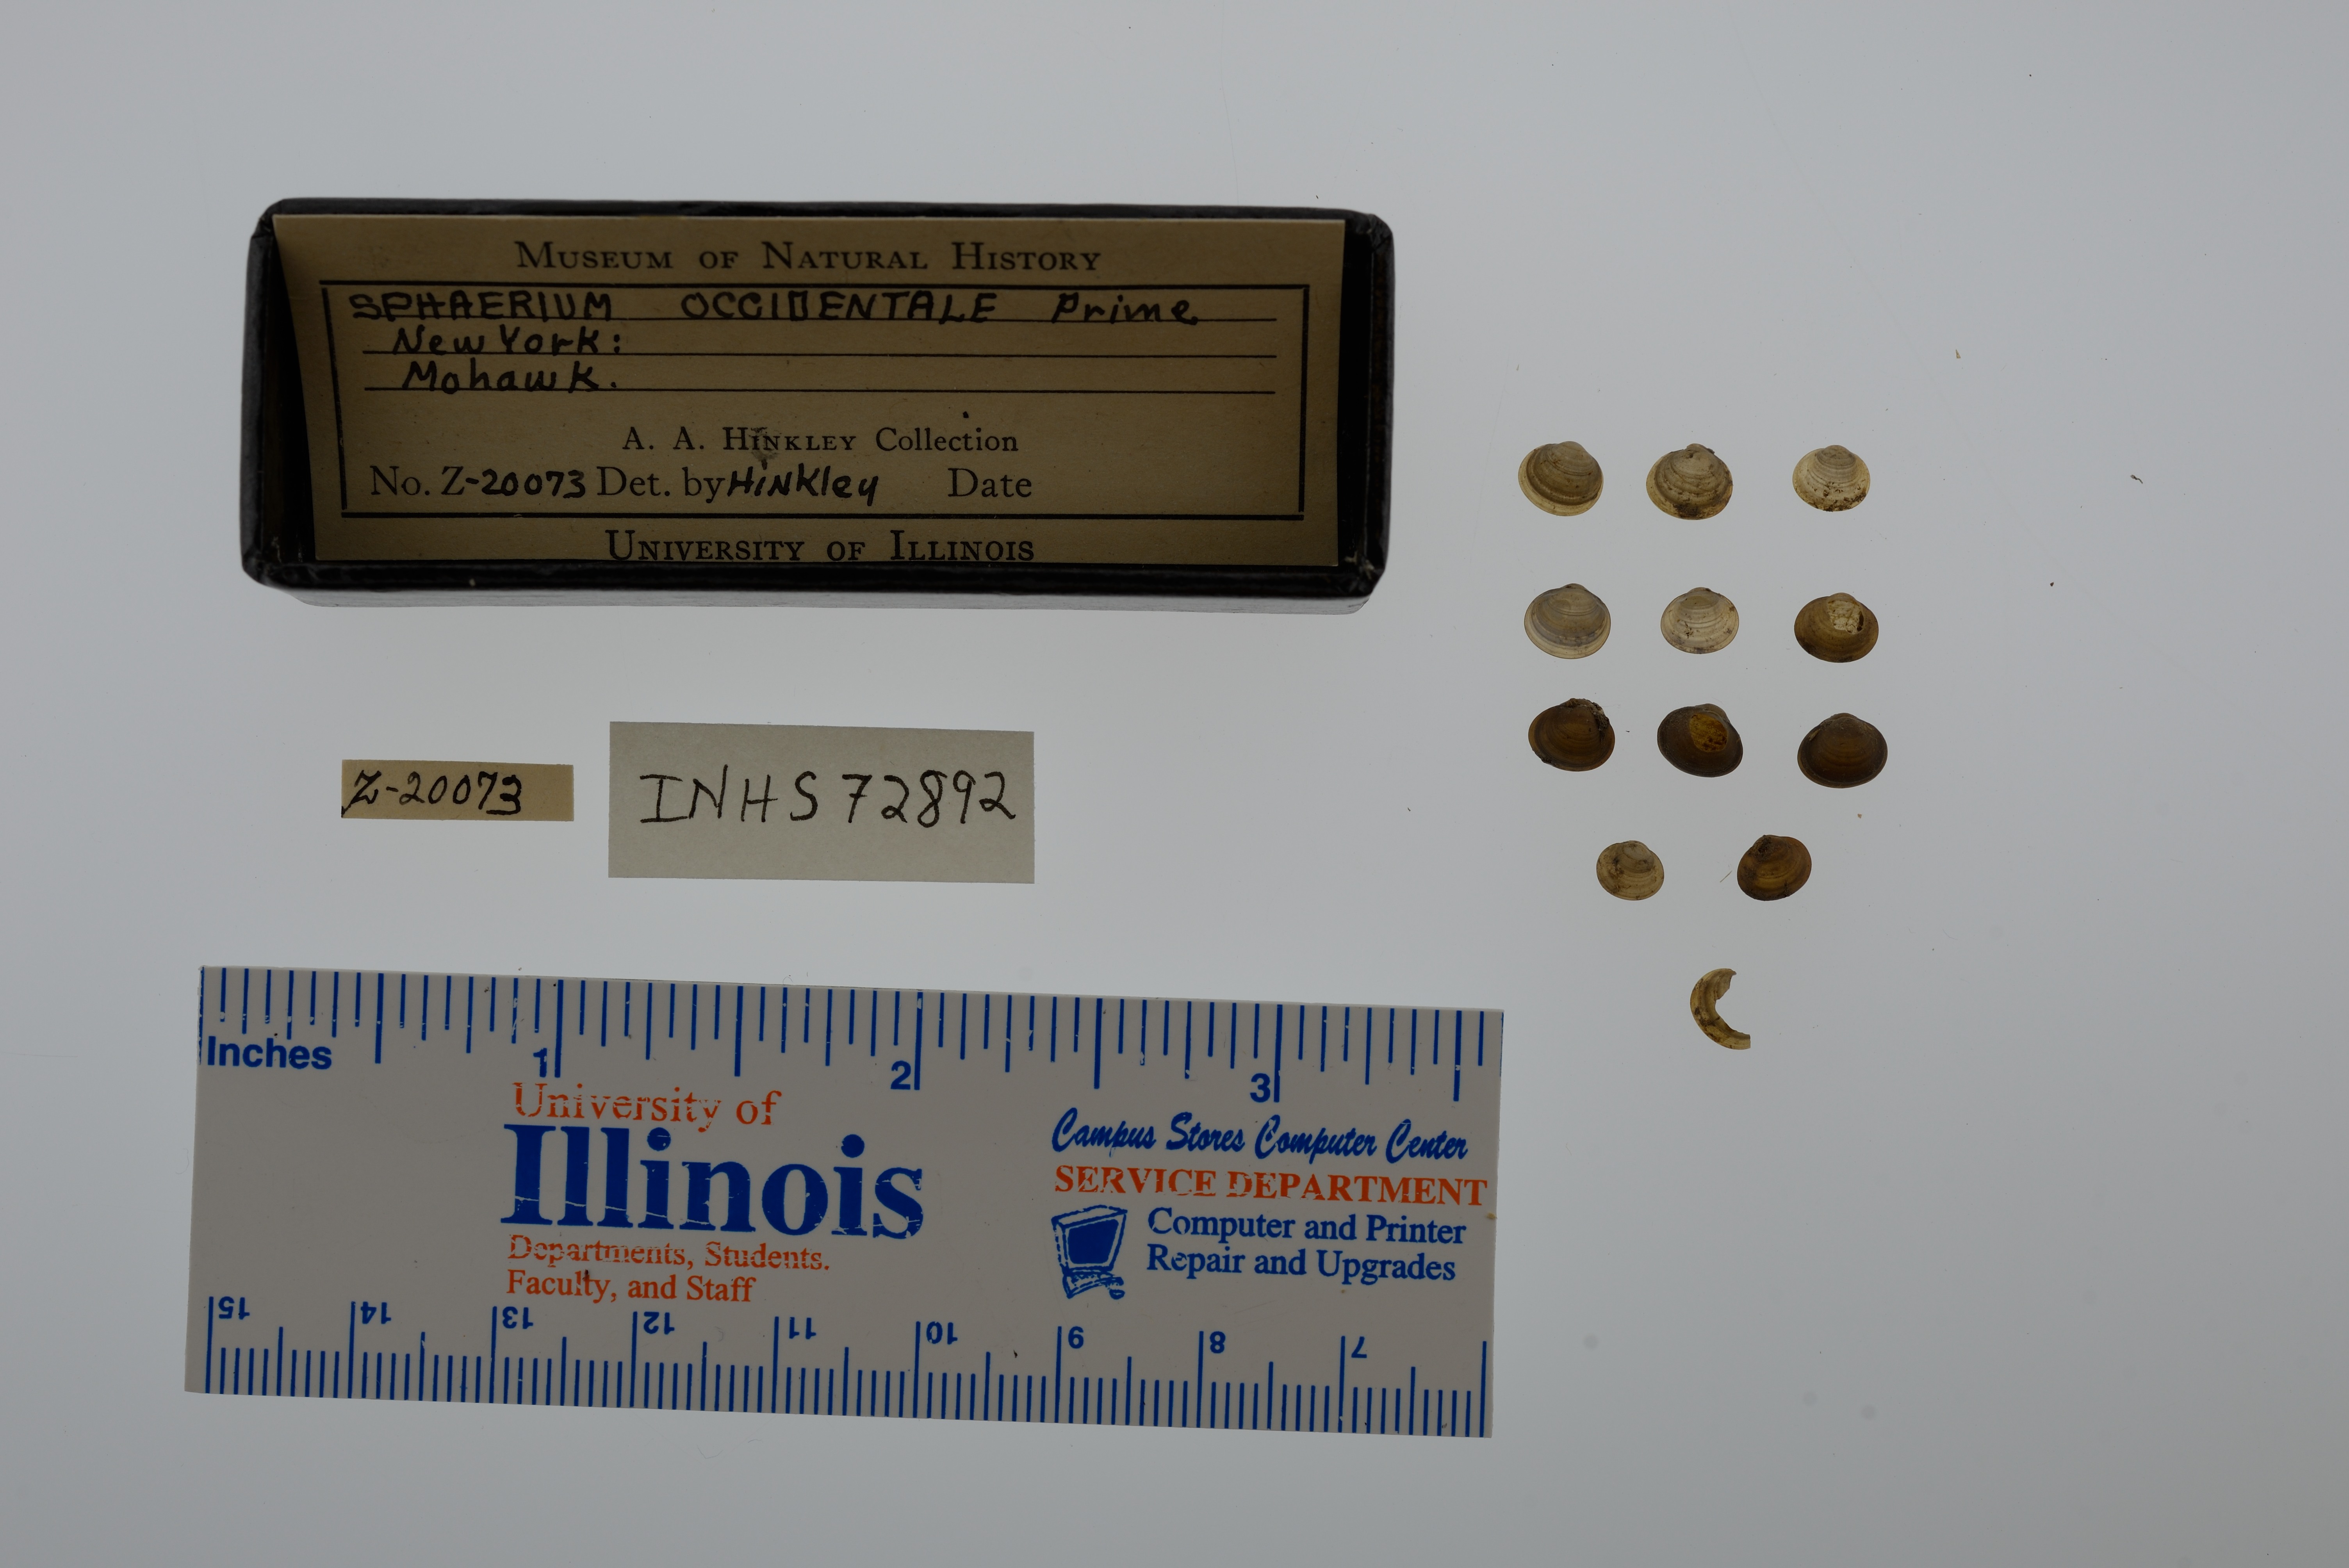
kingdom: Animalia
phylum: Mollusca
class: Bivalvia
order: Sphaeriida
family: Sphaeriidae
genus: Sphaerium
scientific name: Sphaerium occidentale
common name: Herrington fingernailclam
